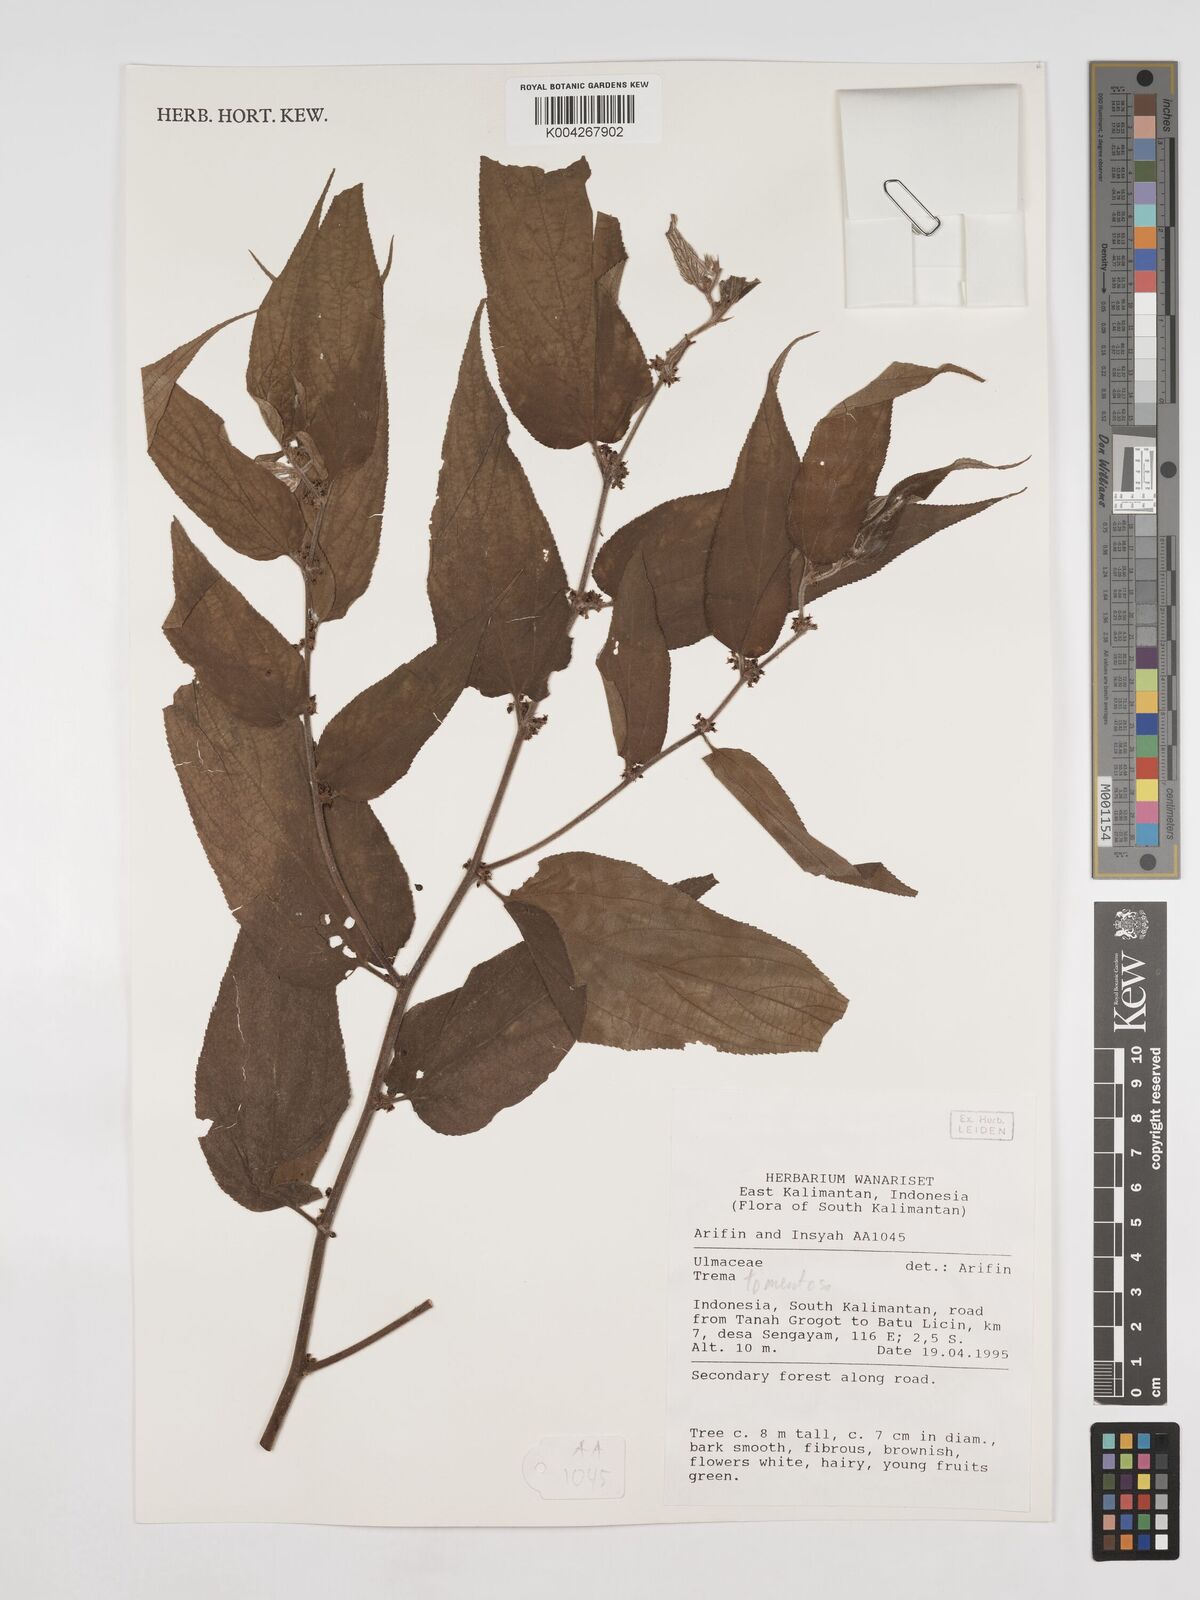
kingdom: Plantae
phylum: Tracheophyta
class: Magnoliopsida
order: Rosales
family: Cannabaceae
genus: Trema
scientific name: Trema tomentosum
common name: Peach-leaf-poisonbush
